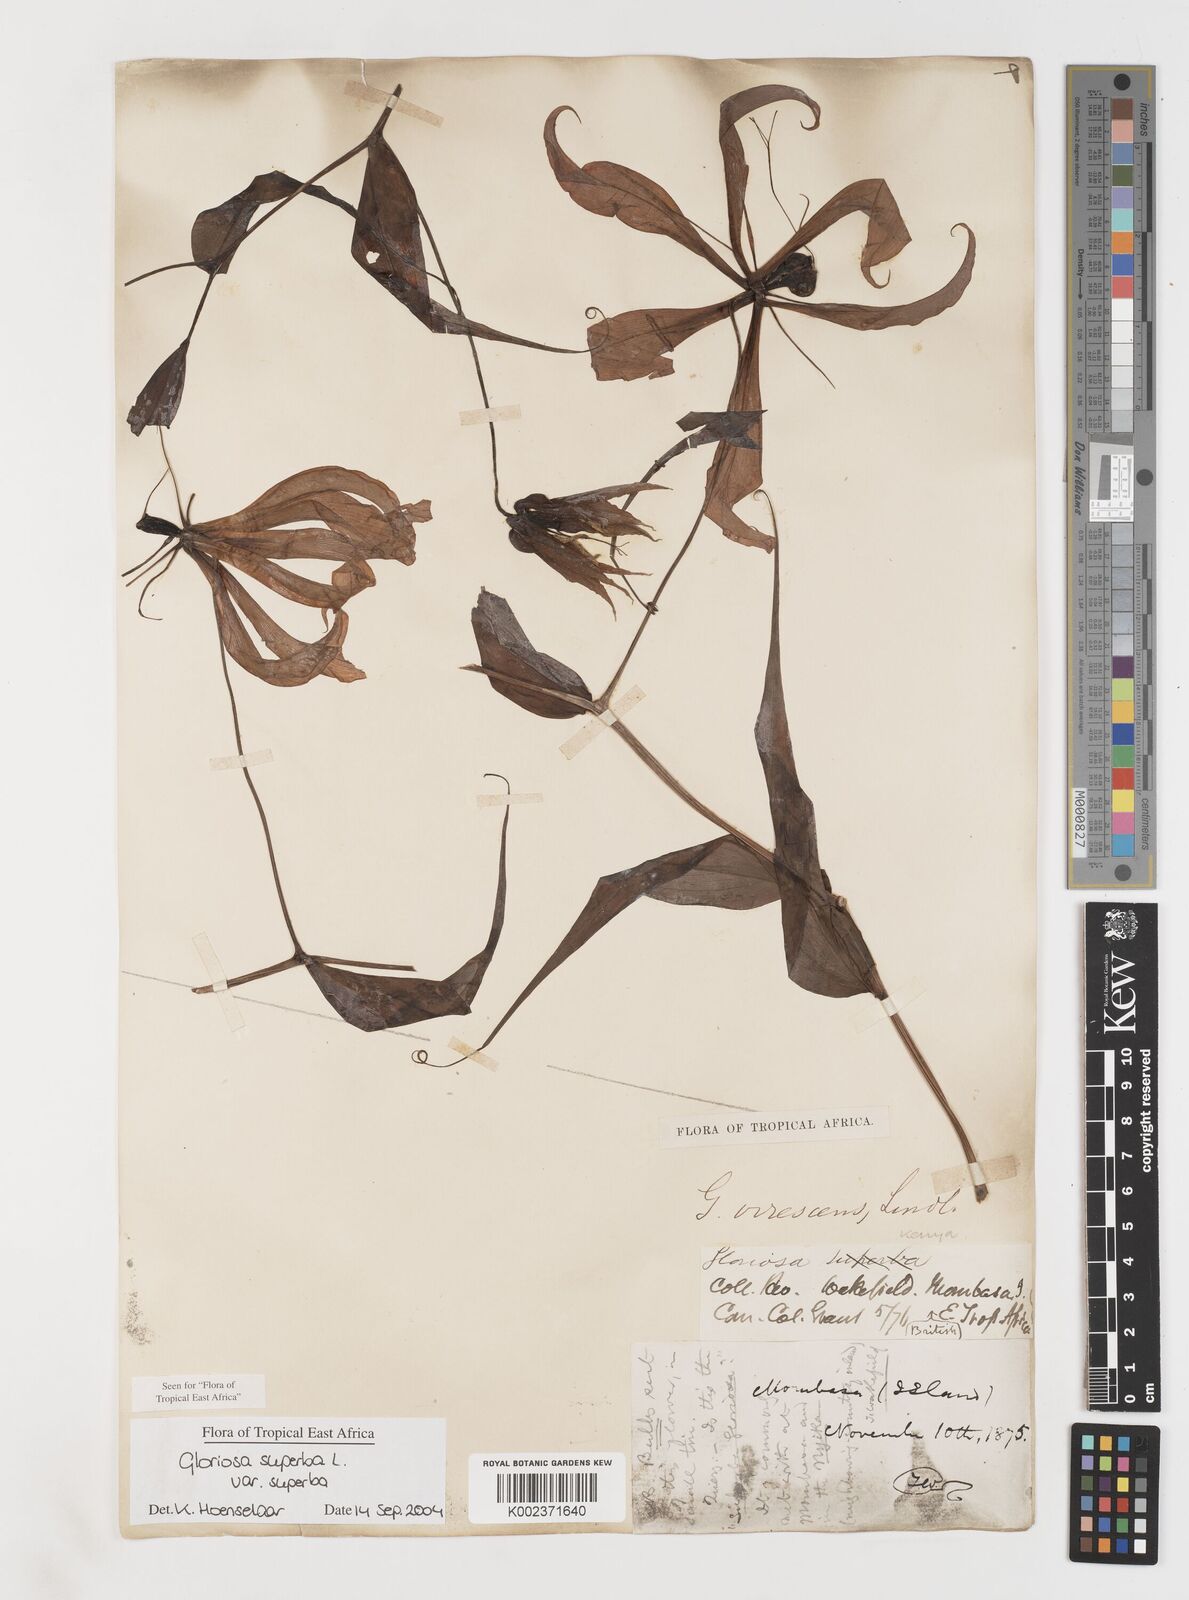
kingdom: Plantae
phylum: Tracheophyta
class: Liliopsida
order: Liliales
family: Colchicaceae
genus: Gloriosa
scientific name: Gloriosa simplex
